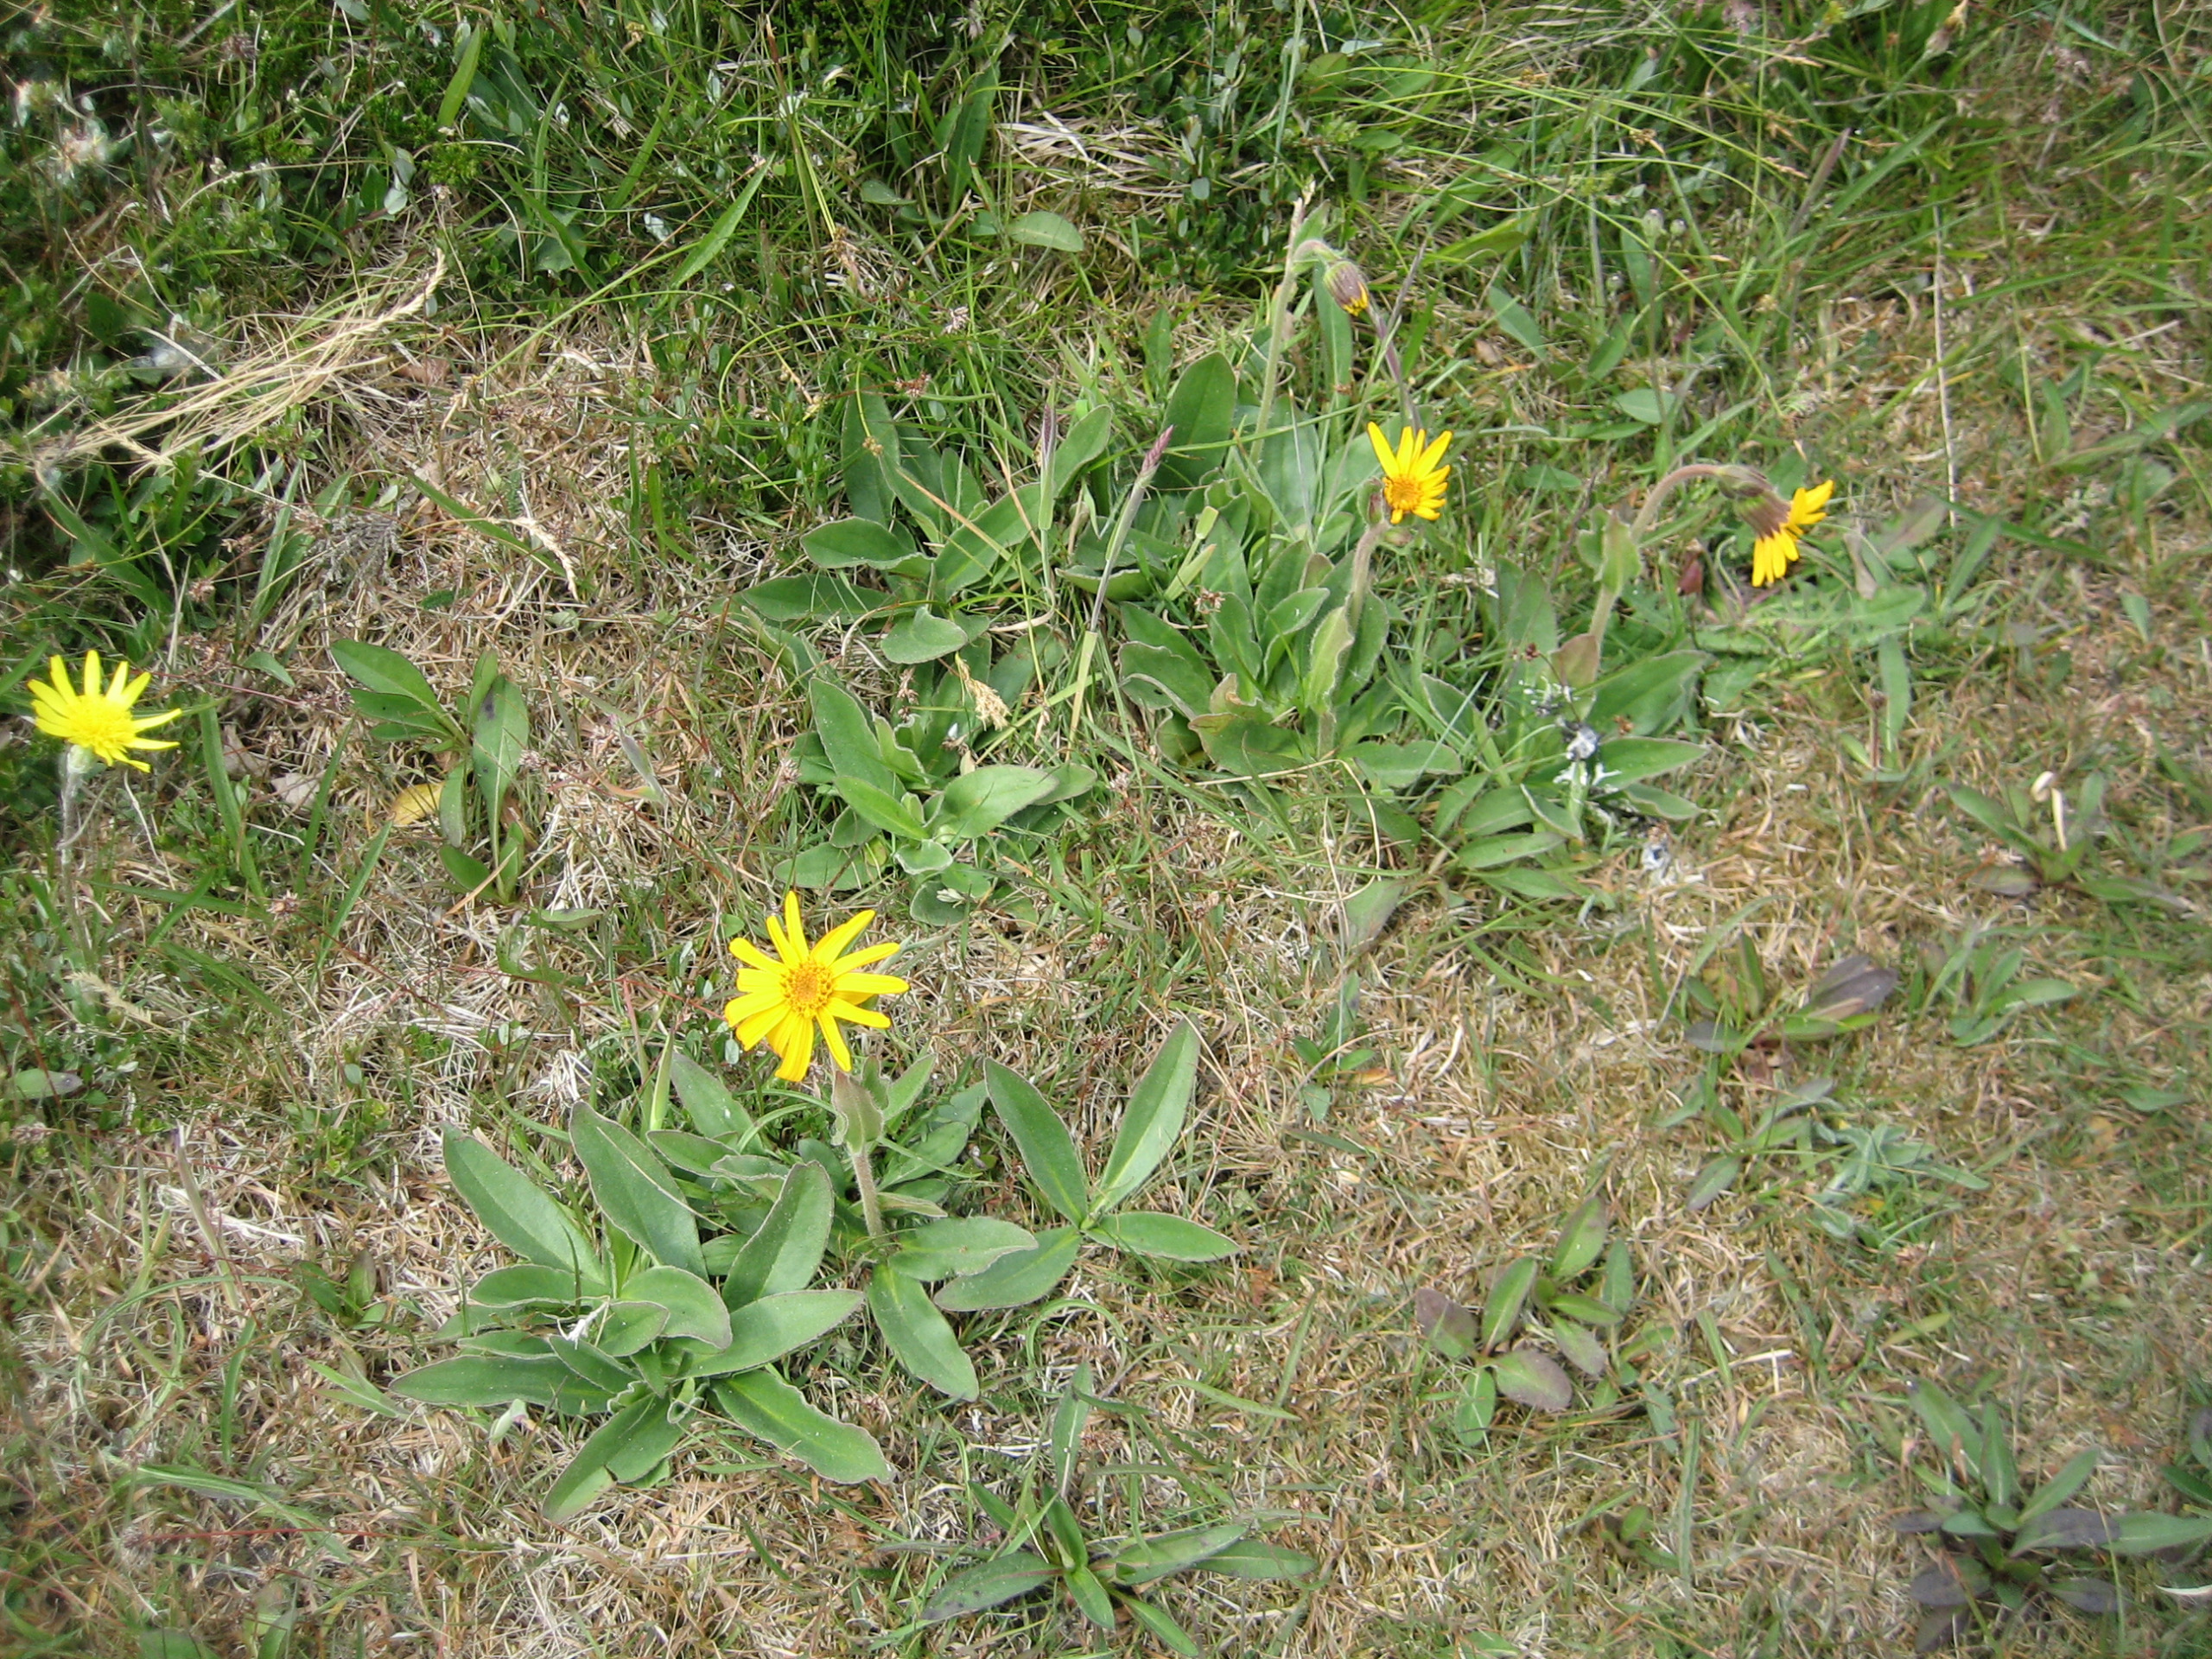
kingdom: Plantae
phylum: Tracheophyta
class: Magnoliopsida
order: Asterales
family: Asteraceae
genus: Arnica
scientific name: Arnica montana
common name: Guldblomme
